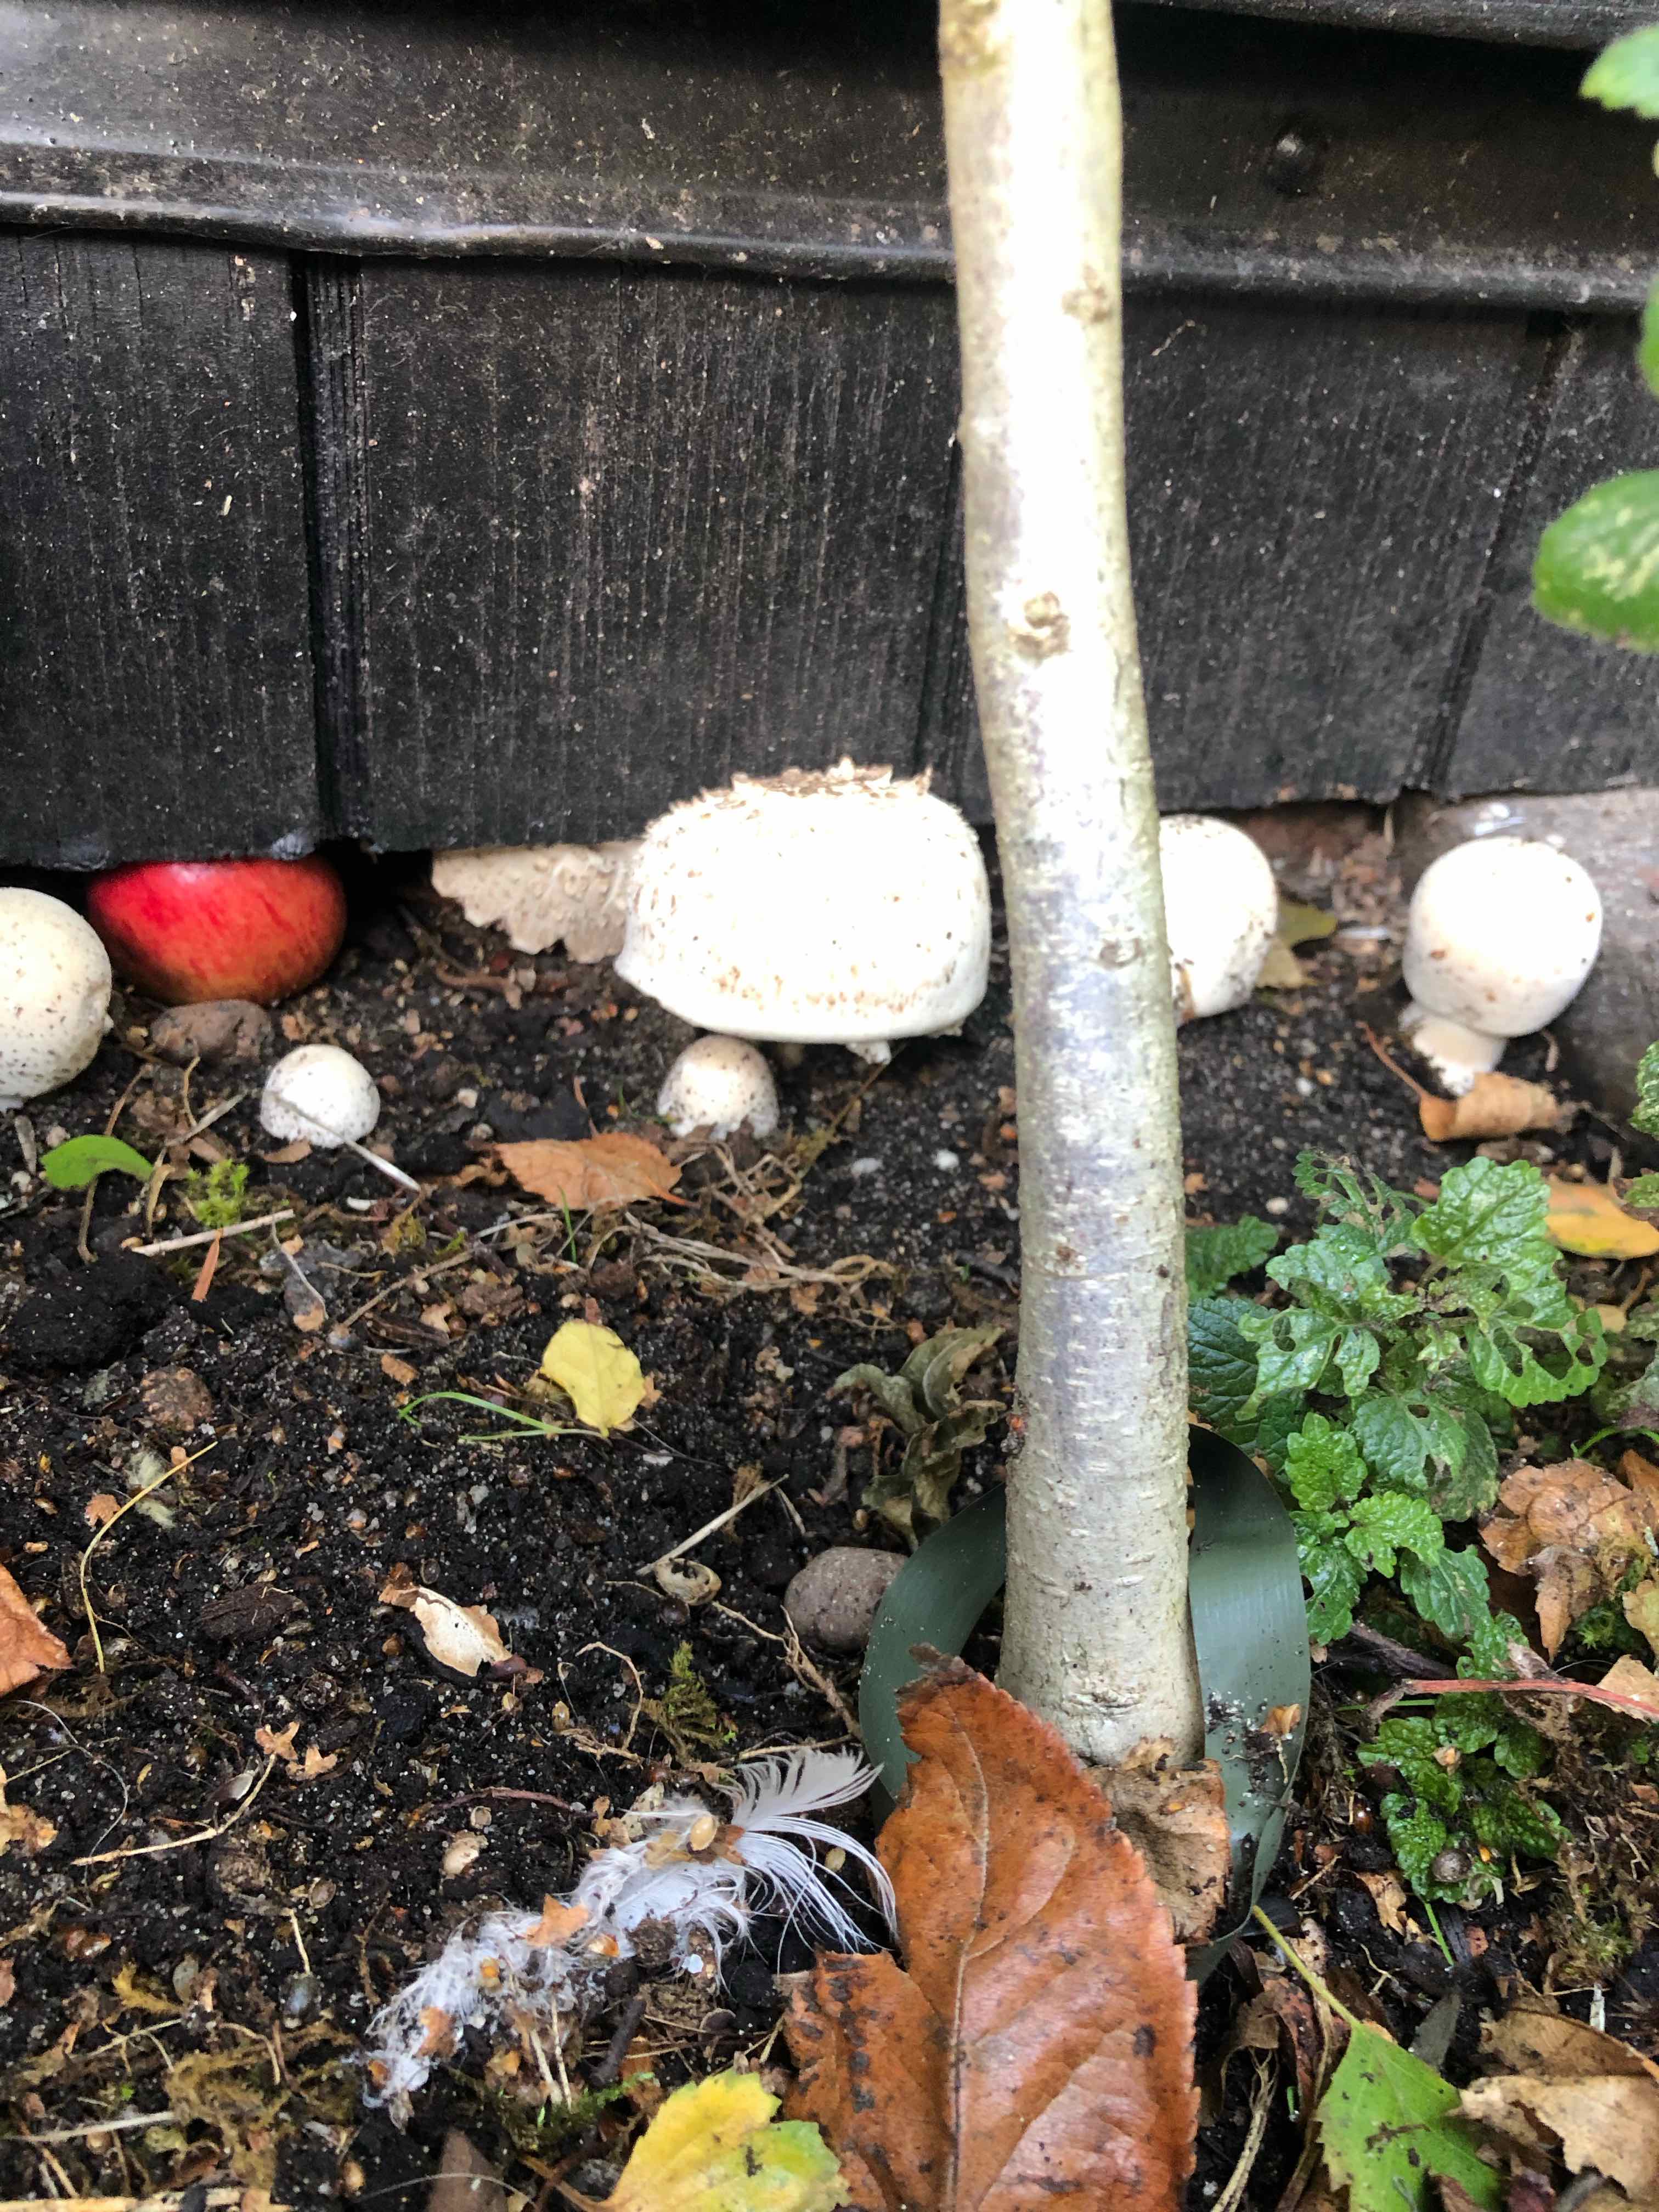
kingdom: Fungi
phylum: Basidiomycota
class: Agaricomycetes
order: Agaricales
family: Agaricaceae
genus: Agaricus
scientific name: Agaricus xanthodermus
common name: karbol-champignon
